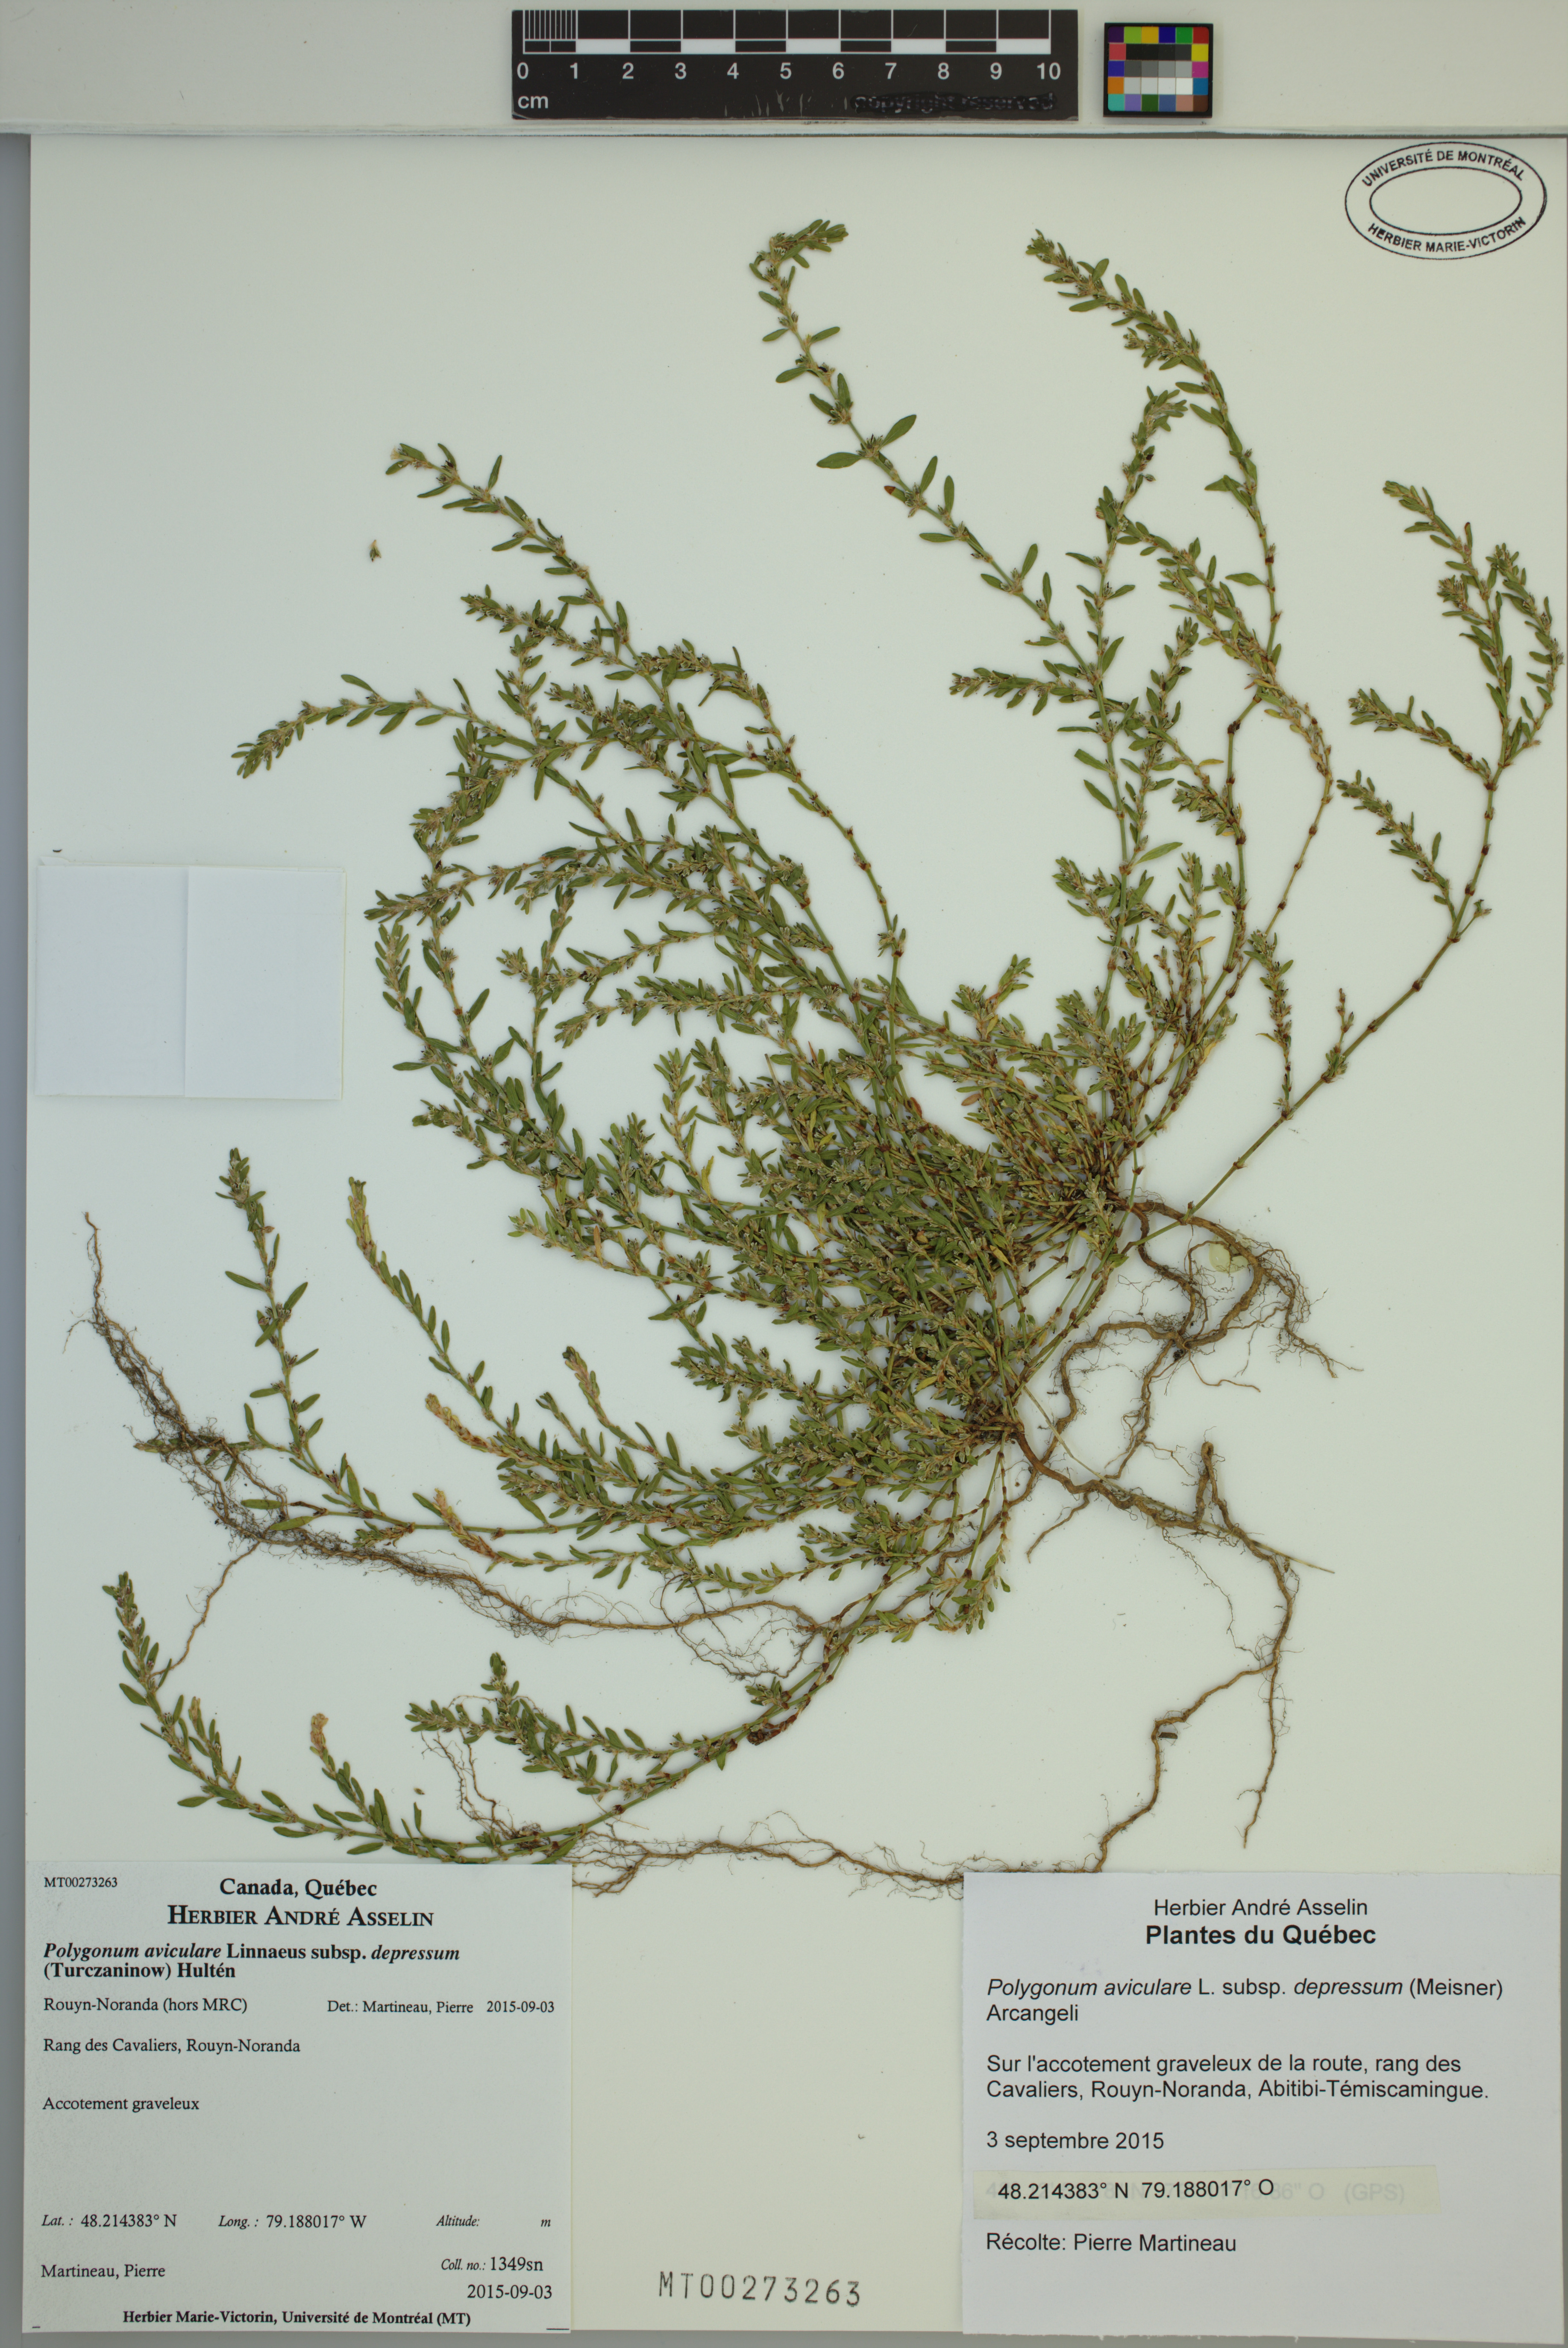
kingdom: Plantae
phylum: Tracheophyta
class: Magnoliopsida
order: Caryophyllales
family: Polygonaceae
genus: Polygonum
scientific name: Polygonum arenastrum
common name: Equal-leaved knotgrass
